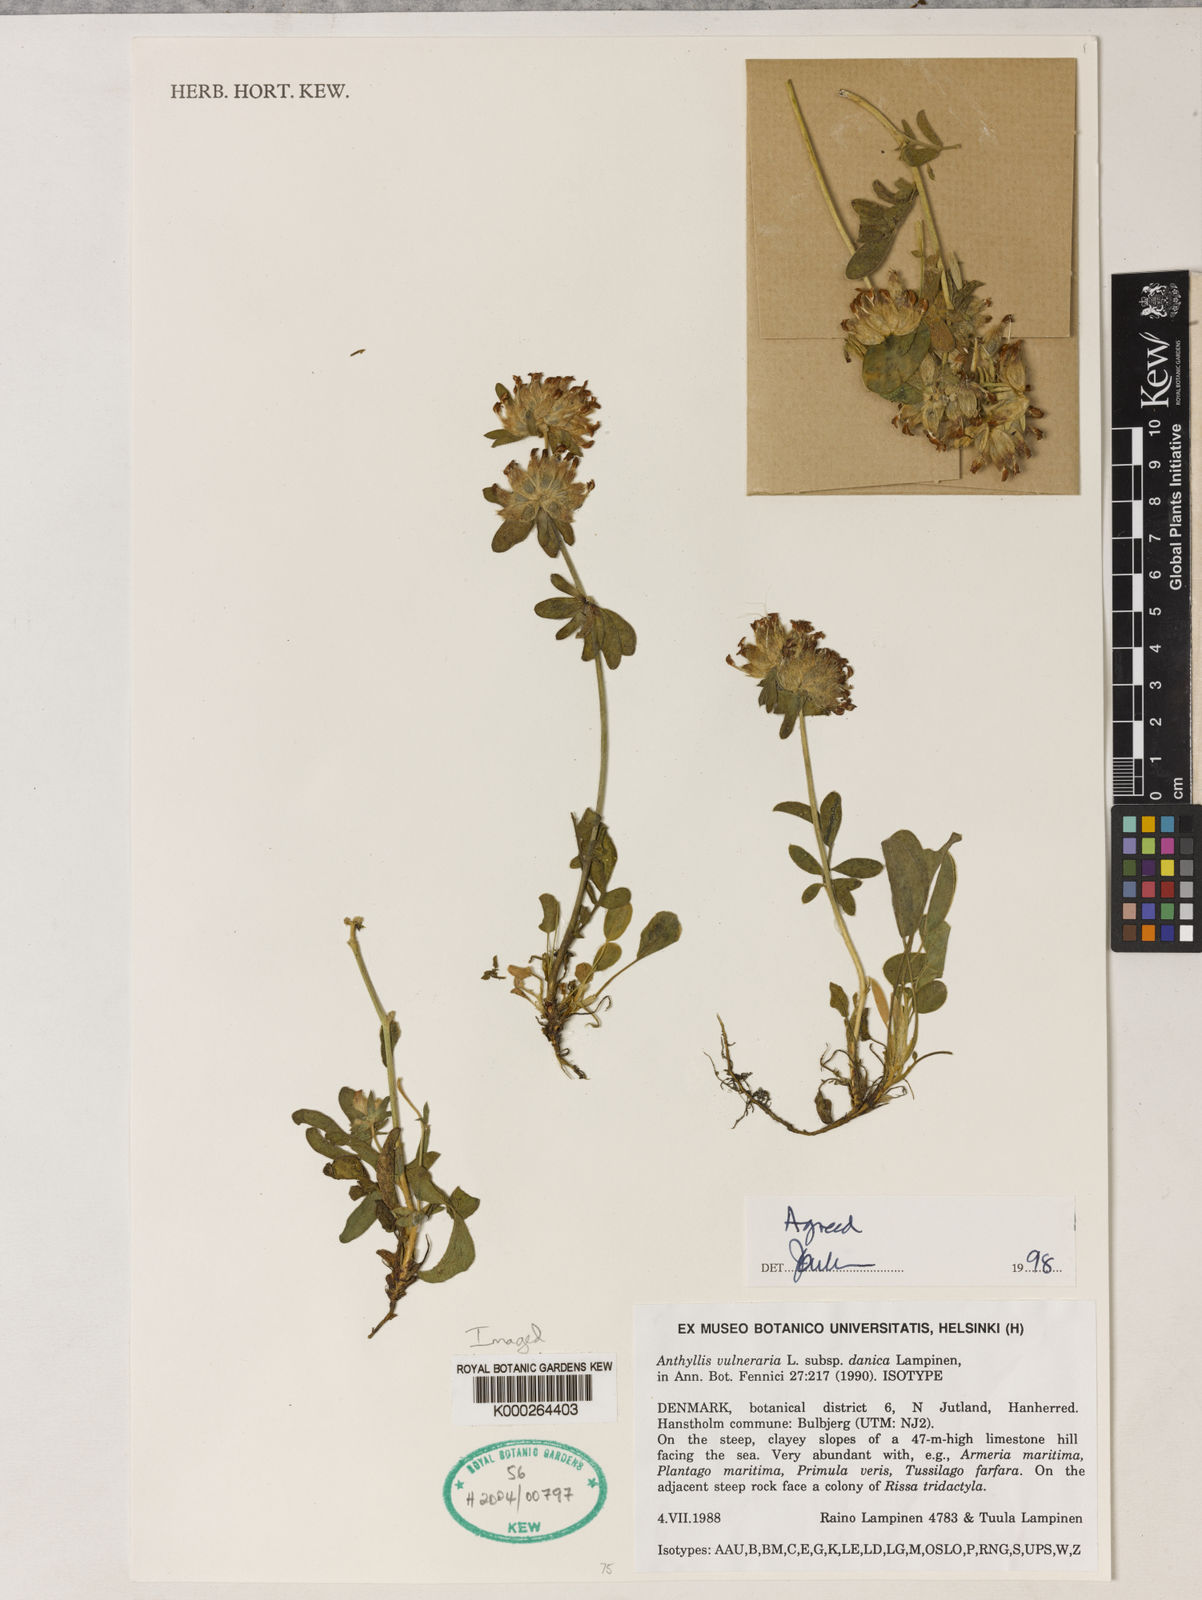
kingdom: Plantae
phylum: Tracheophyta
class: Magnoliopsida
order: Fabales
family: Fabaceae
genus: Anthyllis
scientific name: Anthyllis vulneraria
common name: Kidney vetch
